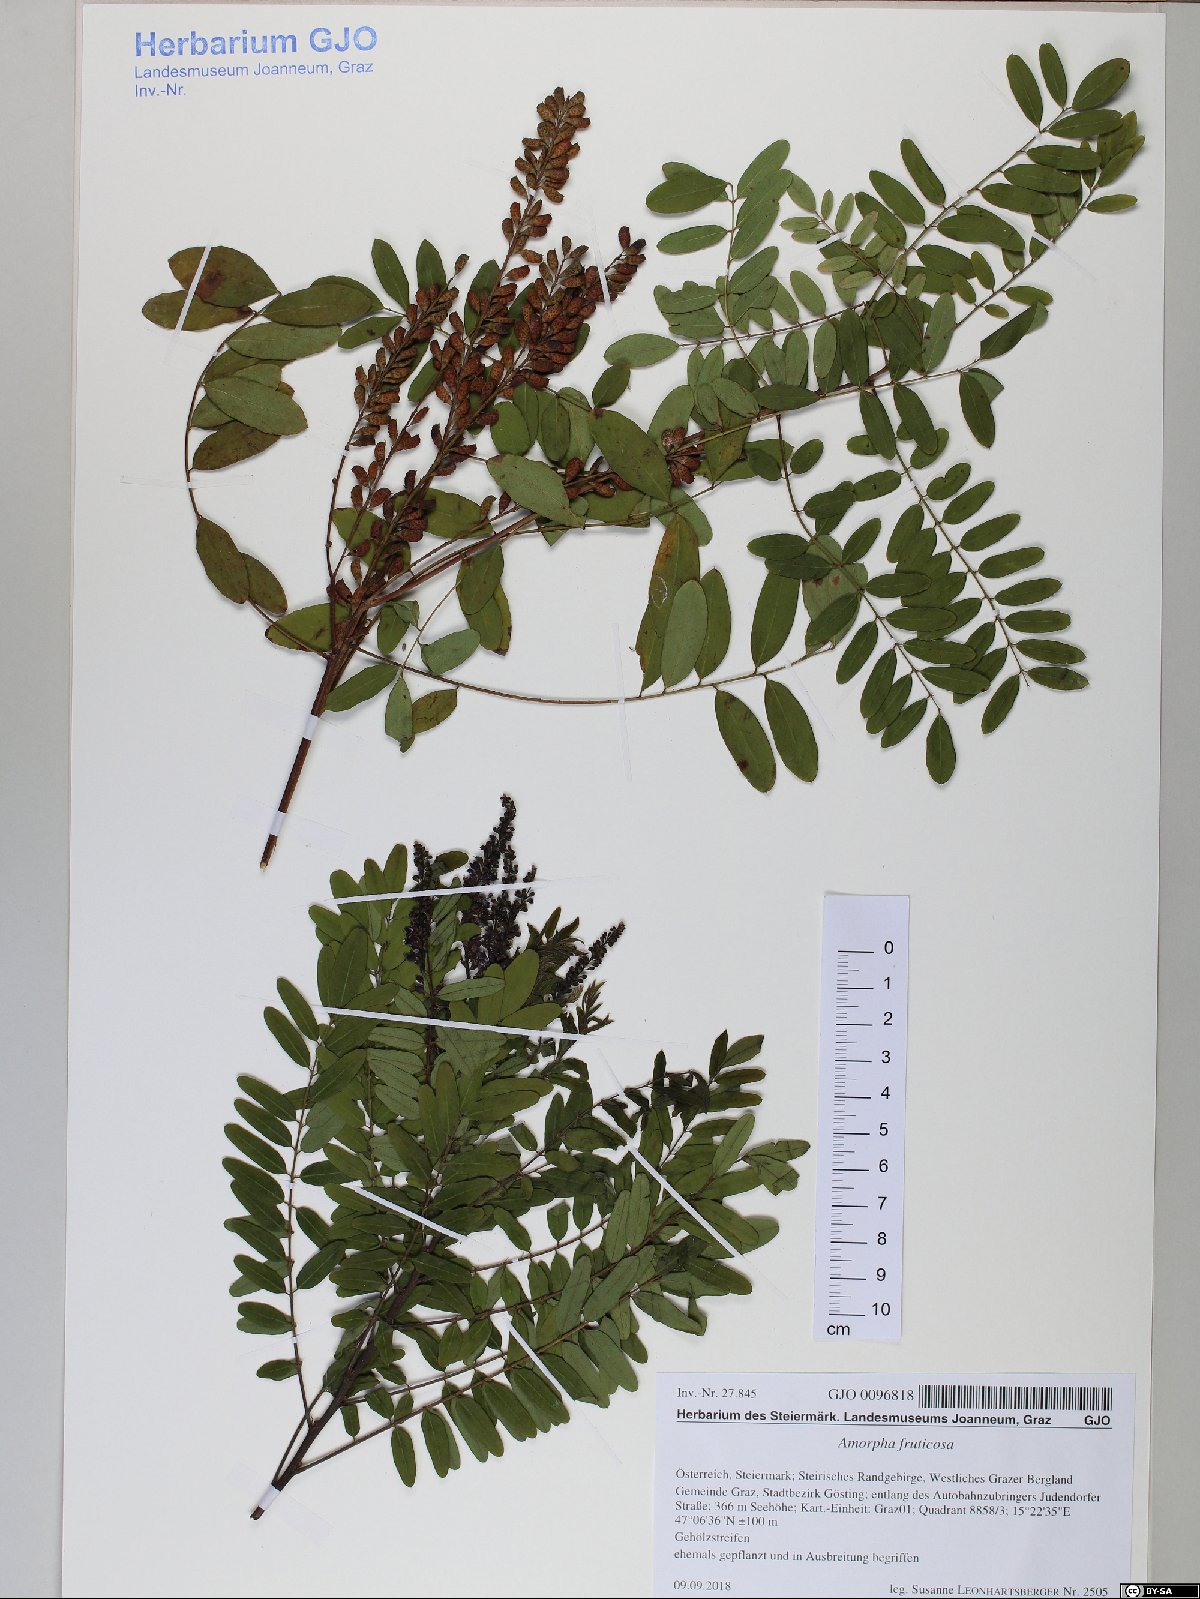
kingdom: Plantae
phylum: Tracheophyta
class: Magnoliopsida
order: Fabales
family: Fabaceae
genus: Amorpha
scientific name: Amorpha fruticosa
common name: False indigo
